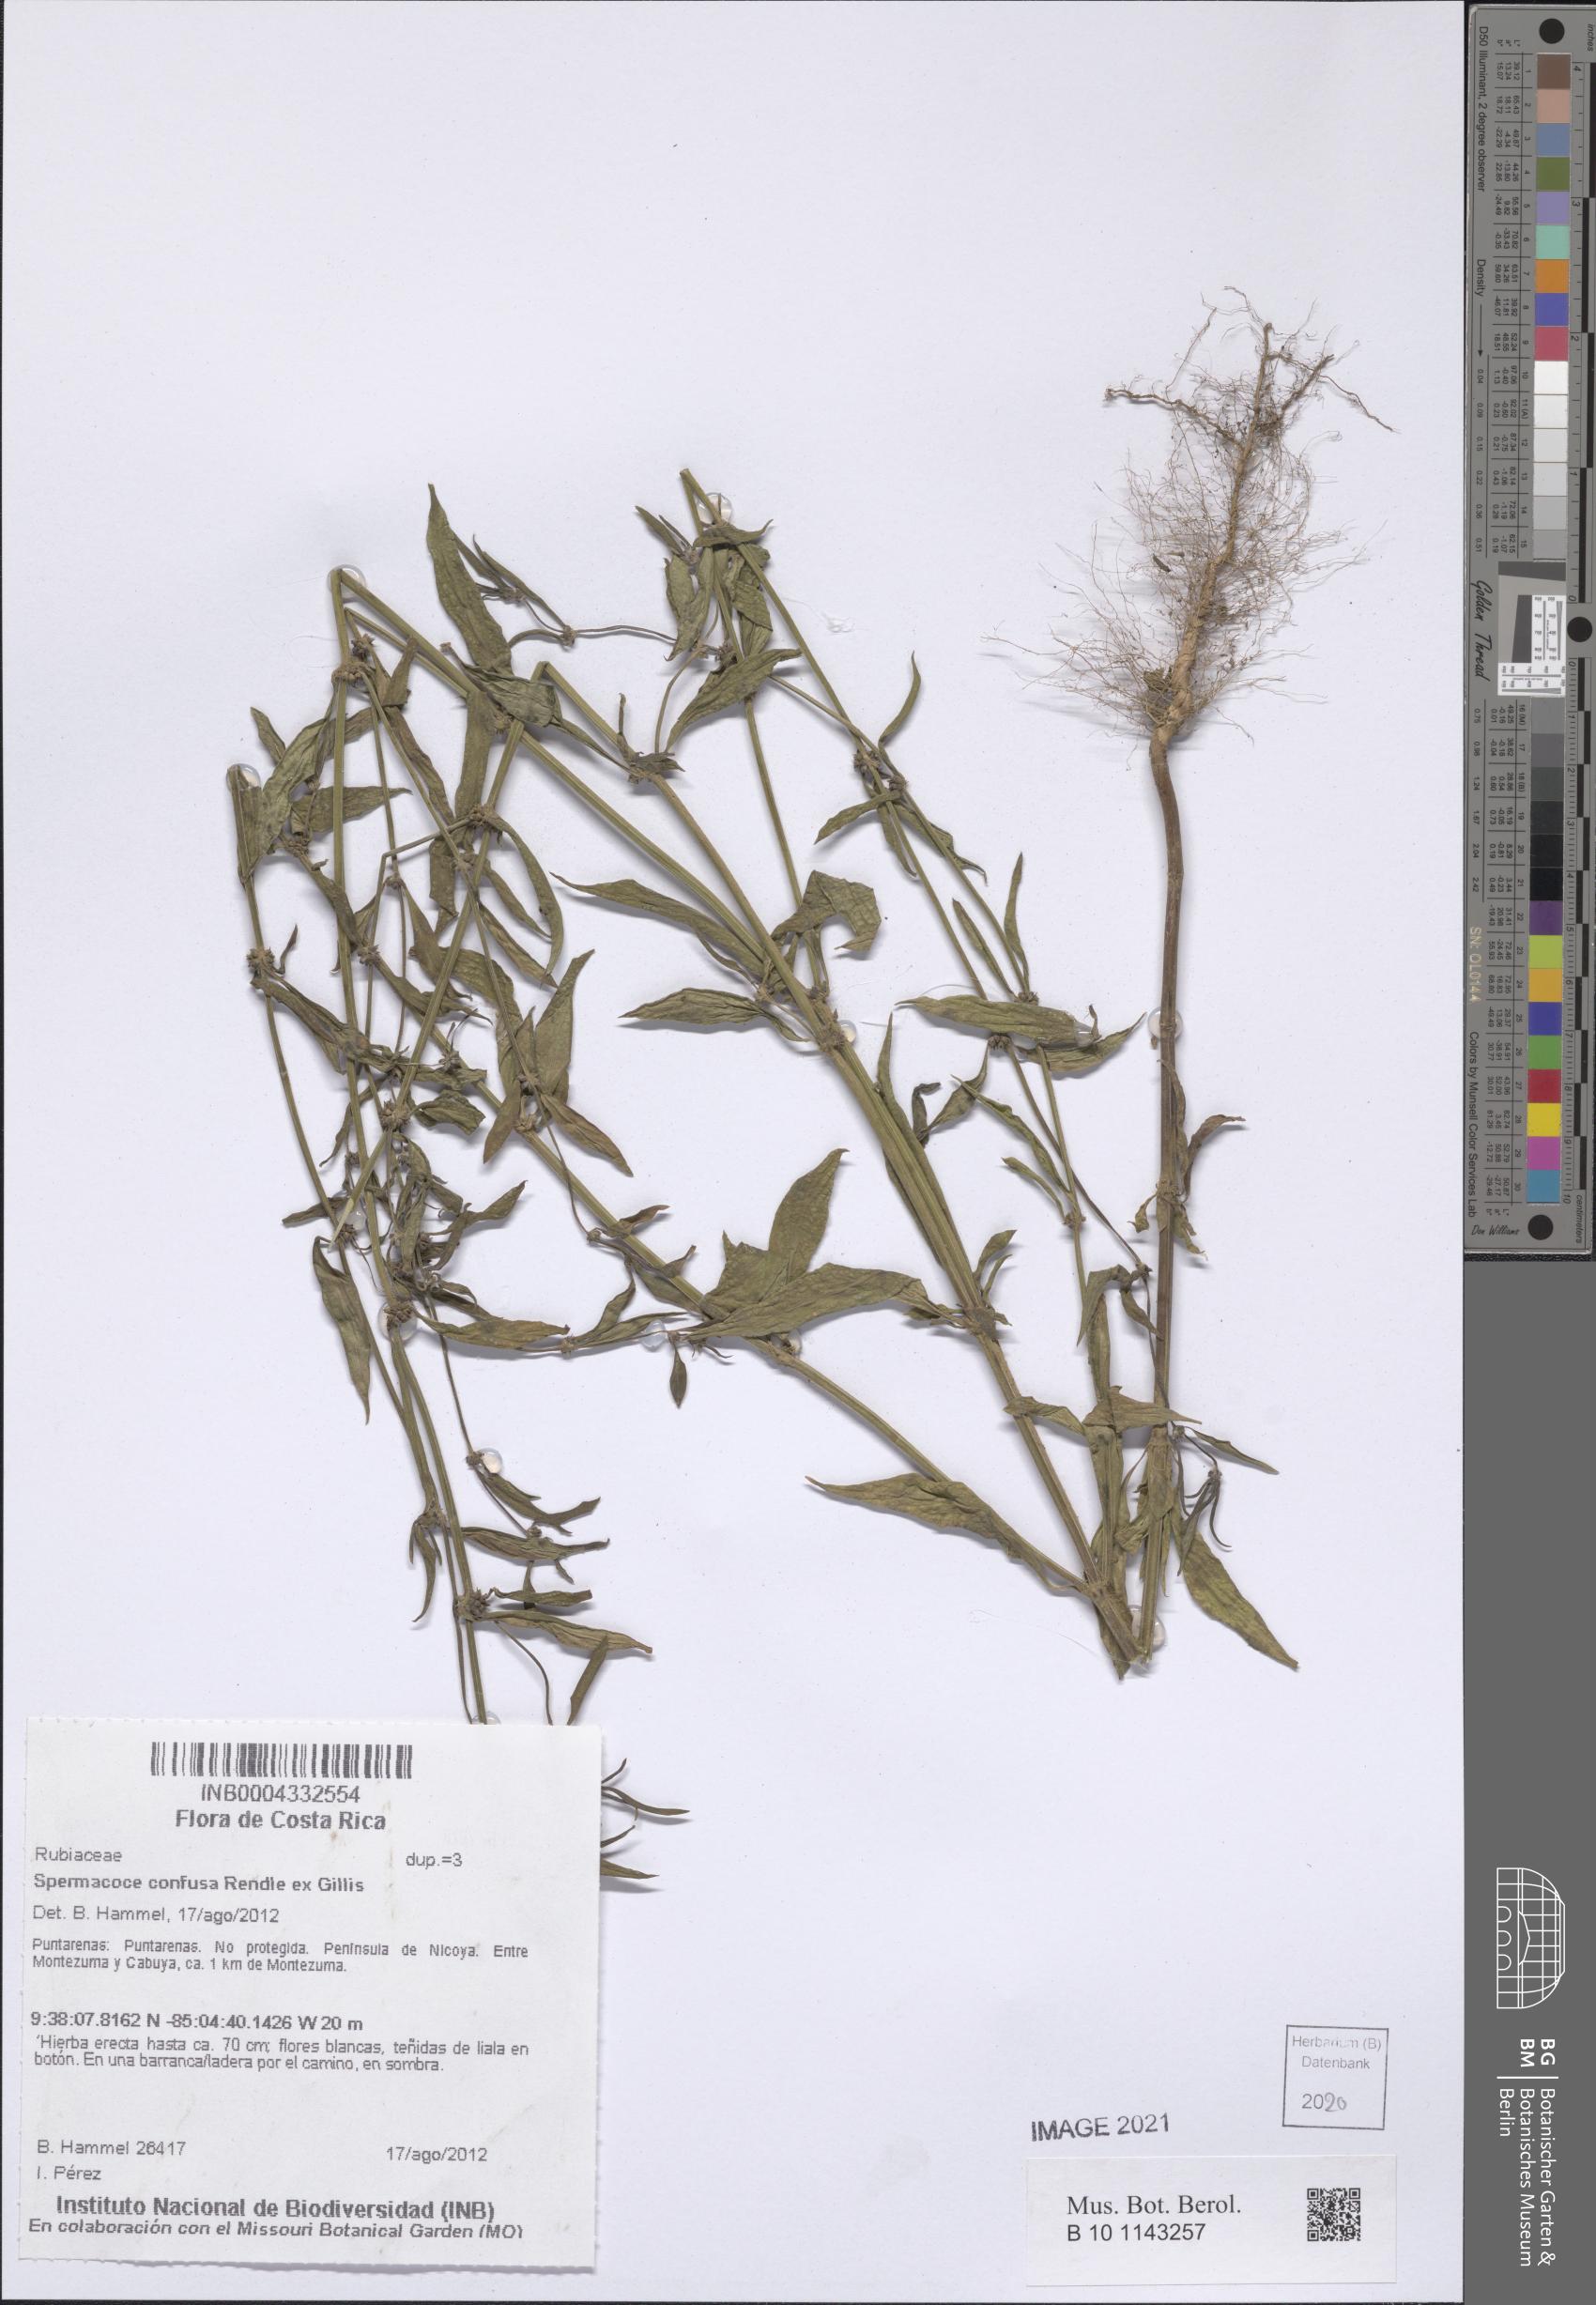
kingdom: Plantae
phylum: Tracheophyta
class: Magnoliopsida
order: Gentianales
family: Rubiaceae
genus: Spermacoce
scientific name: Spermacoce confusa
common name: Iron-grass
